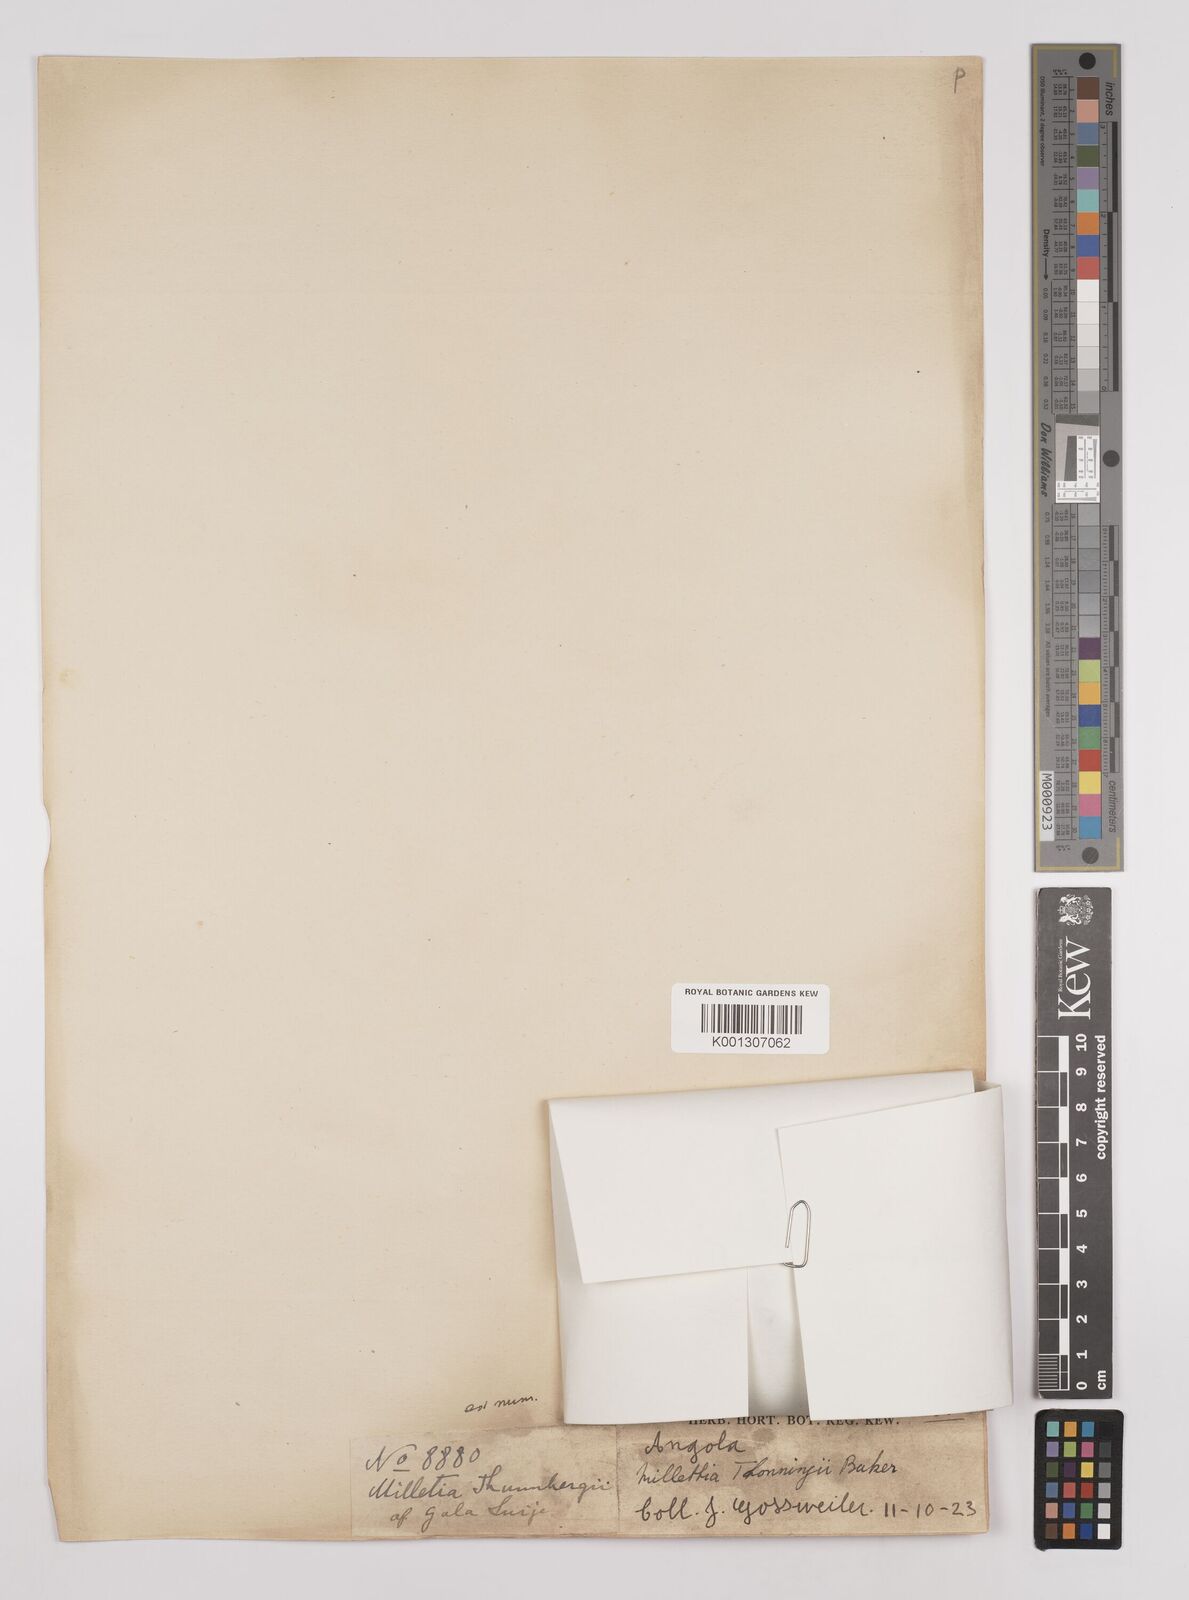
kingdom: Plantae
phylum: Tracheophyta
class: Magnoliopsida
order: Fabales
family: Fabaceae
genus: Millettia
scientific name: Millettia thonningii
